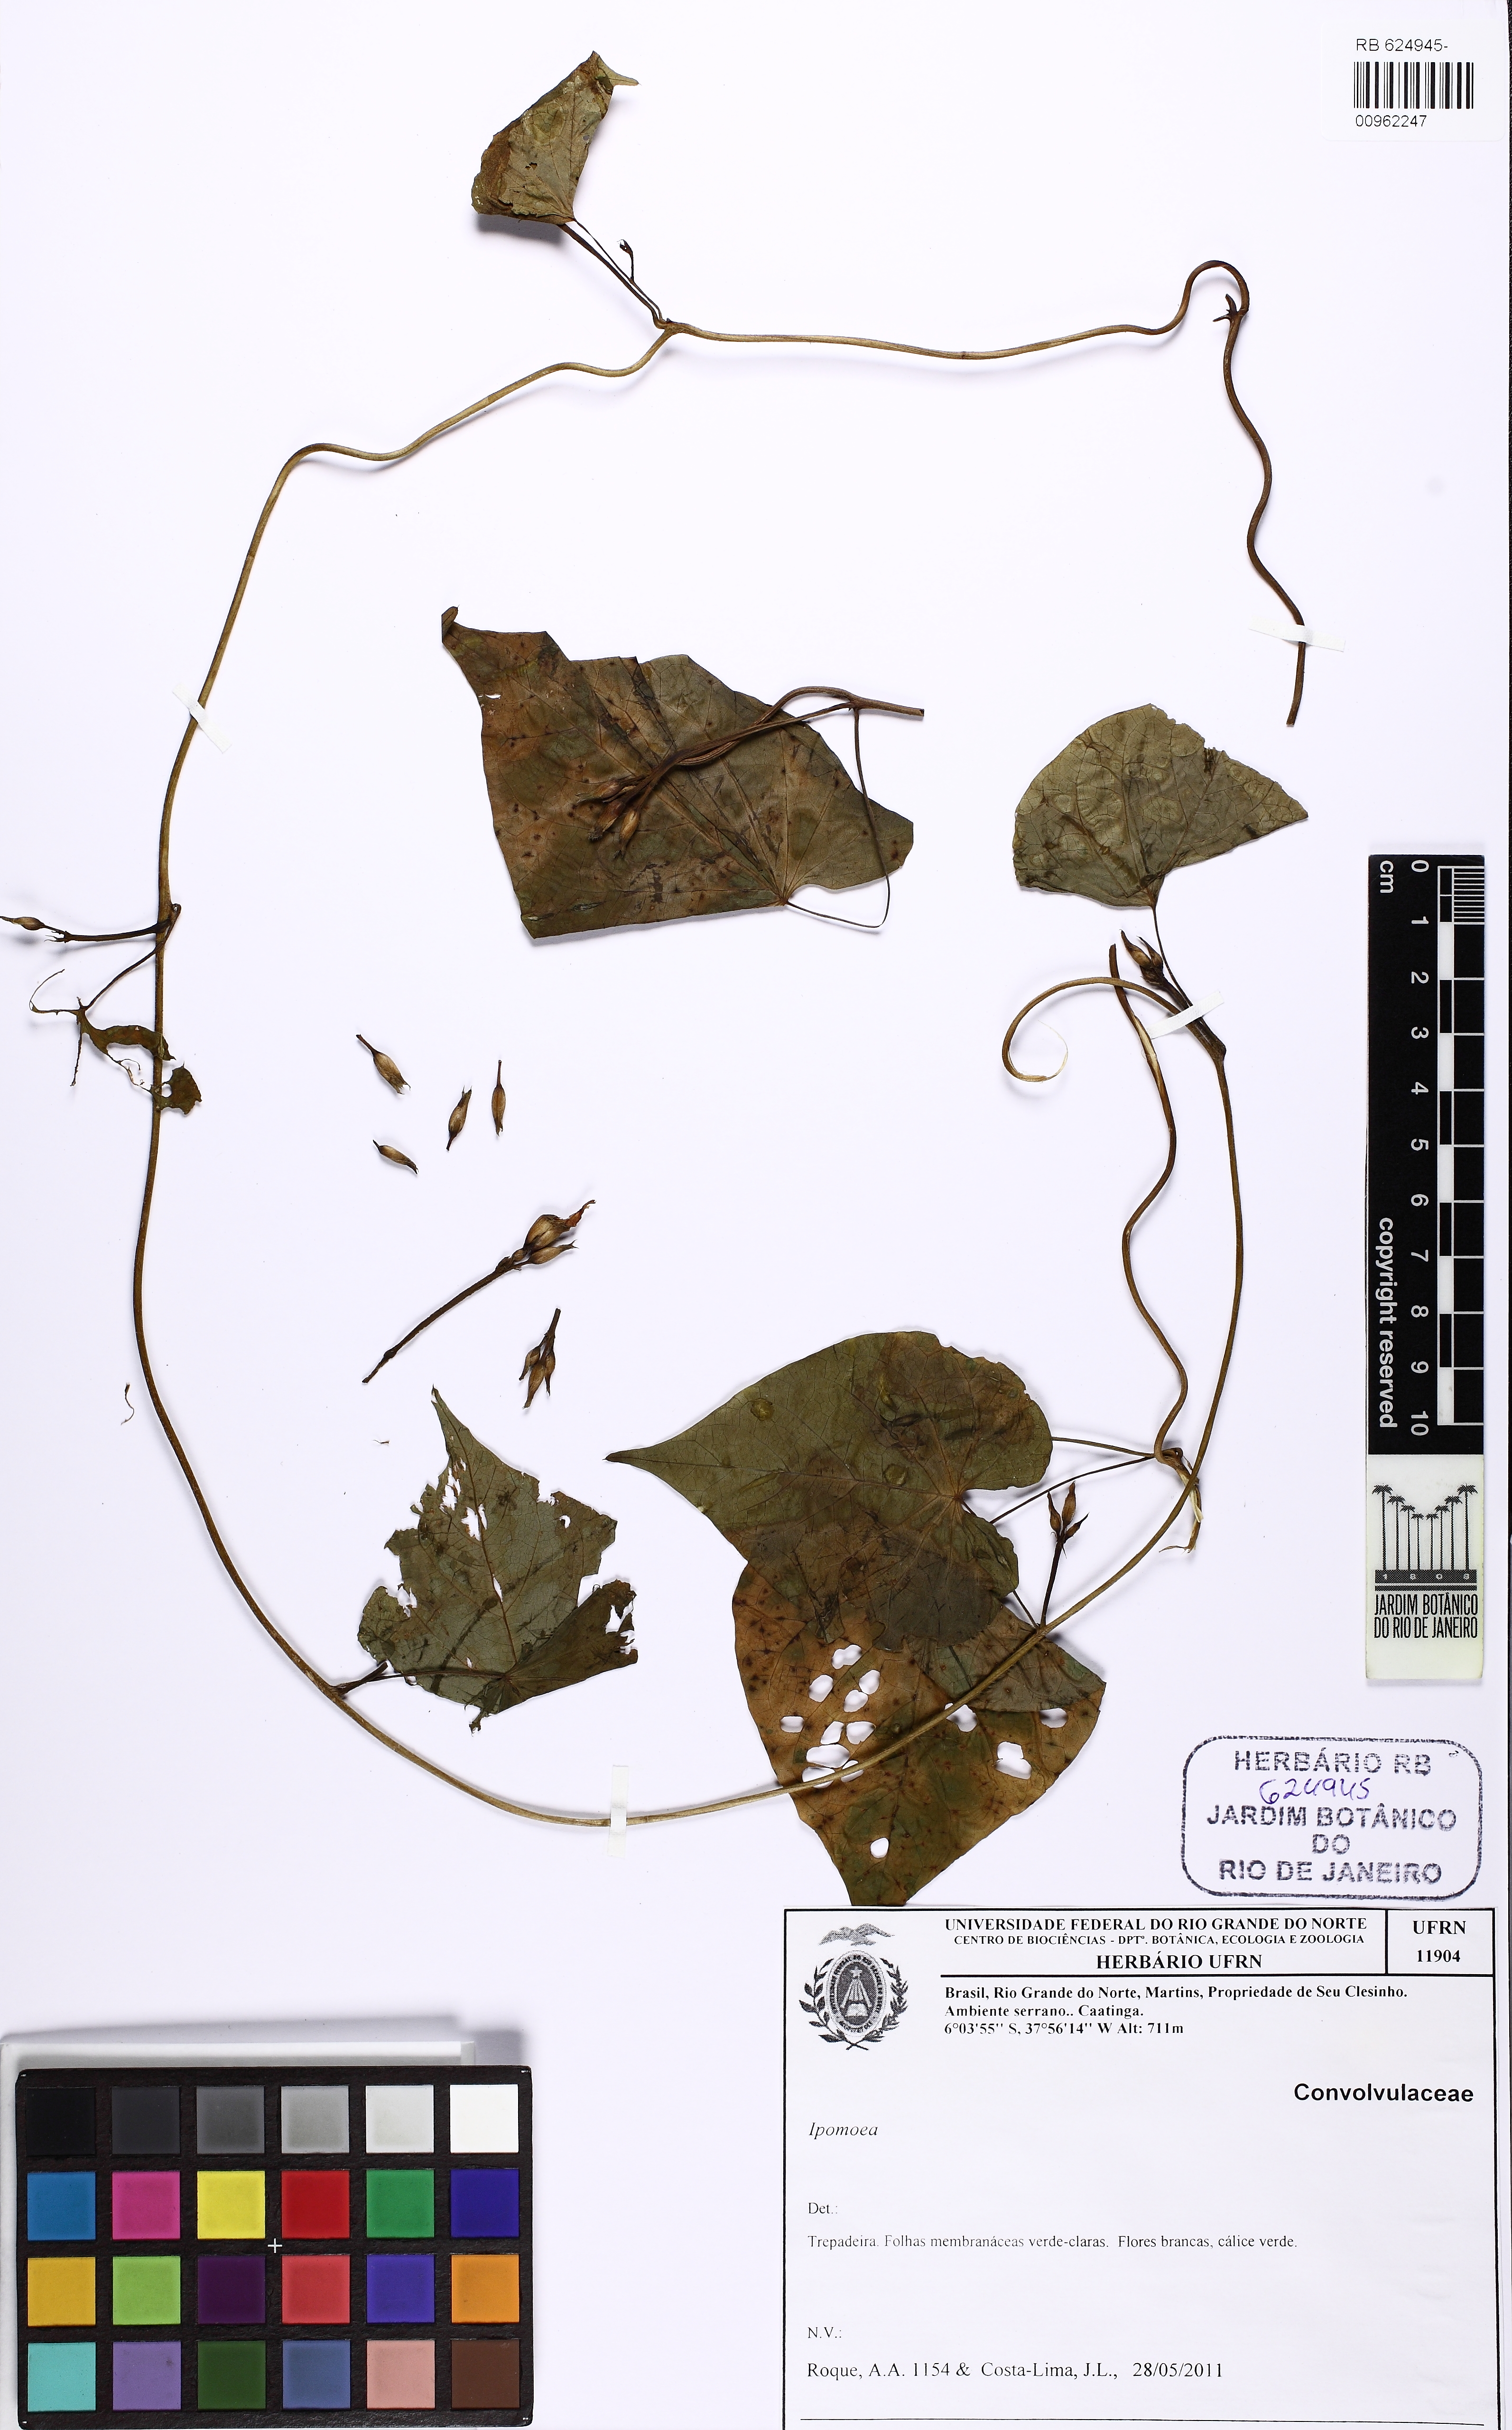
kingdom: Plantae
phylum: Tracheophyta
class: Magnoliopsida
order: Solanales
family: Convolvulaceae
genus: Ipomoea
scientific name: Ipomoea
